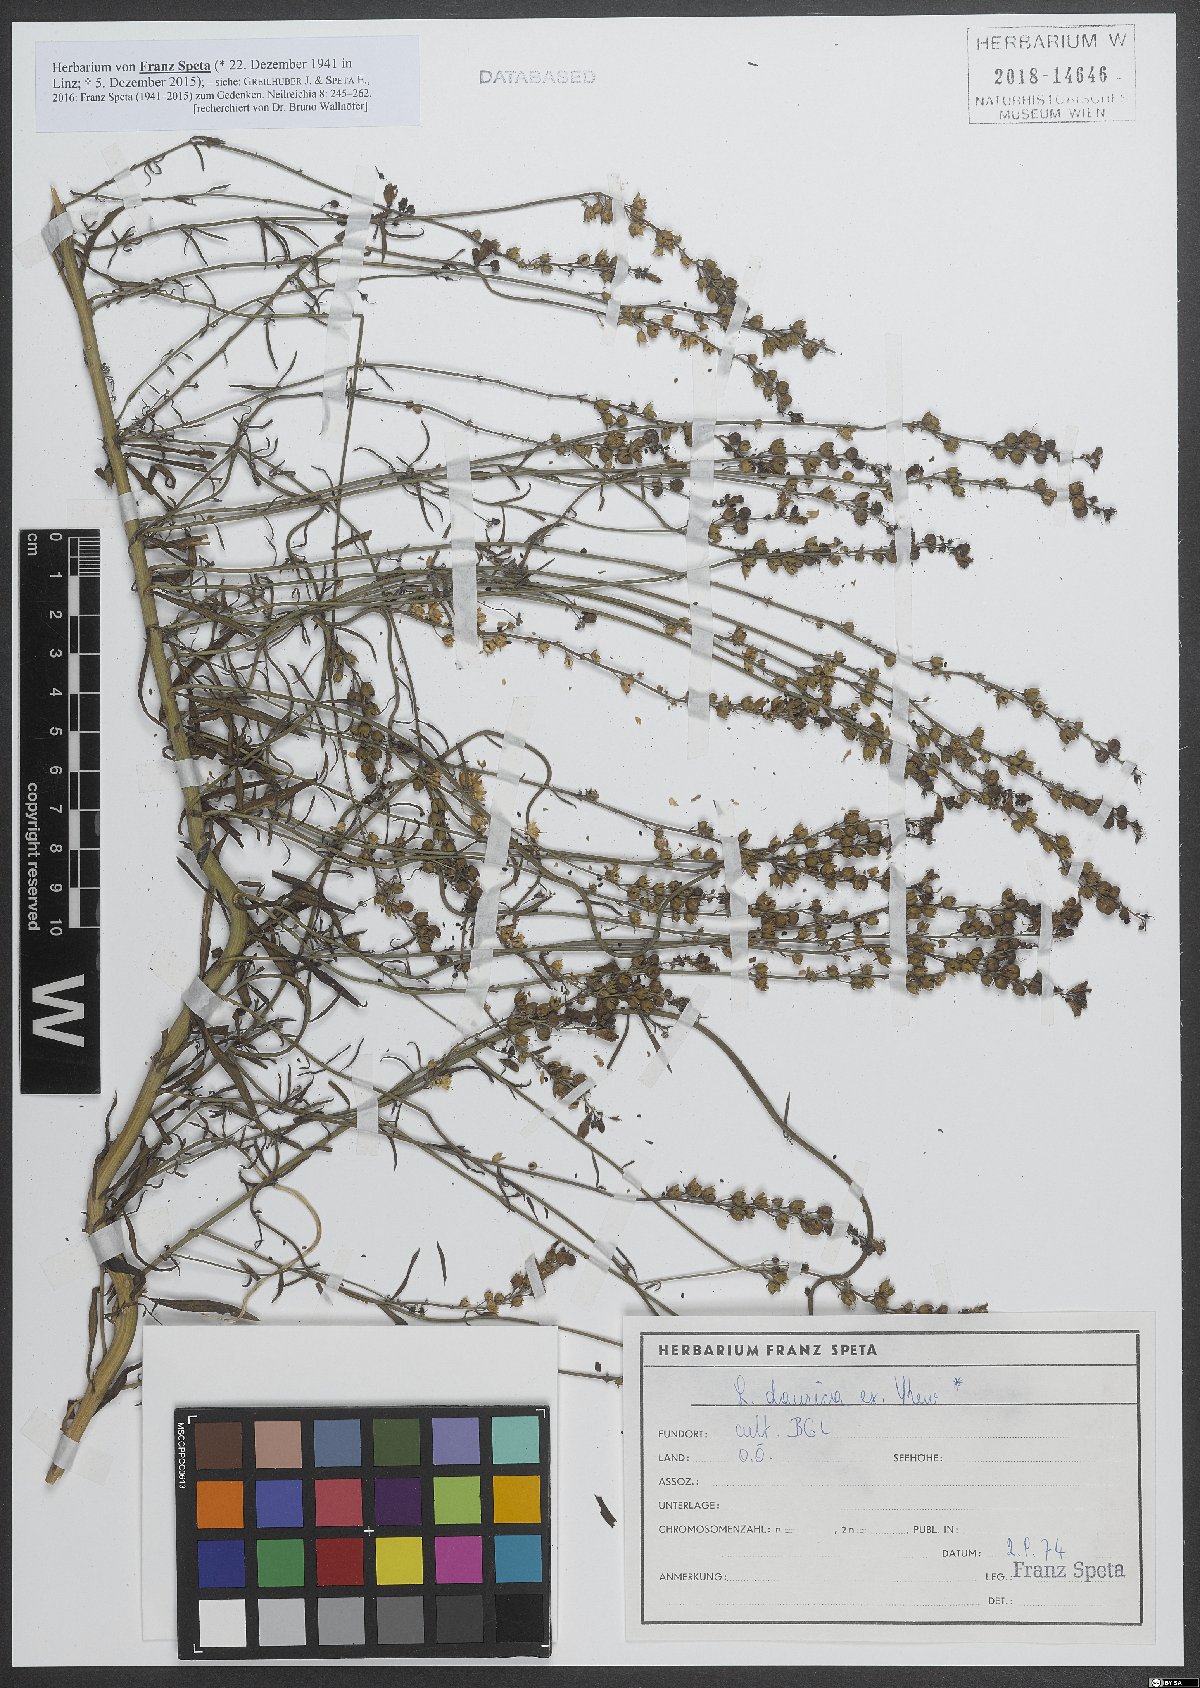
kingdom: Plantae
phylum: Tracheophyta
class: Magnoliopsida
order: Lamiales
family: Plantaginaceae
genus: Linaria
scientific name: Linaria
